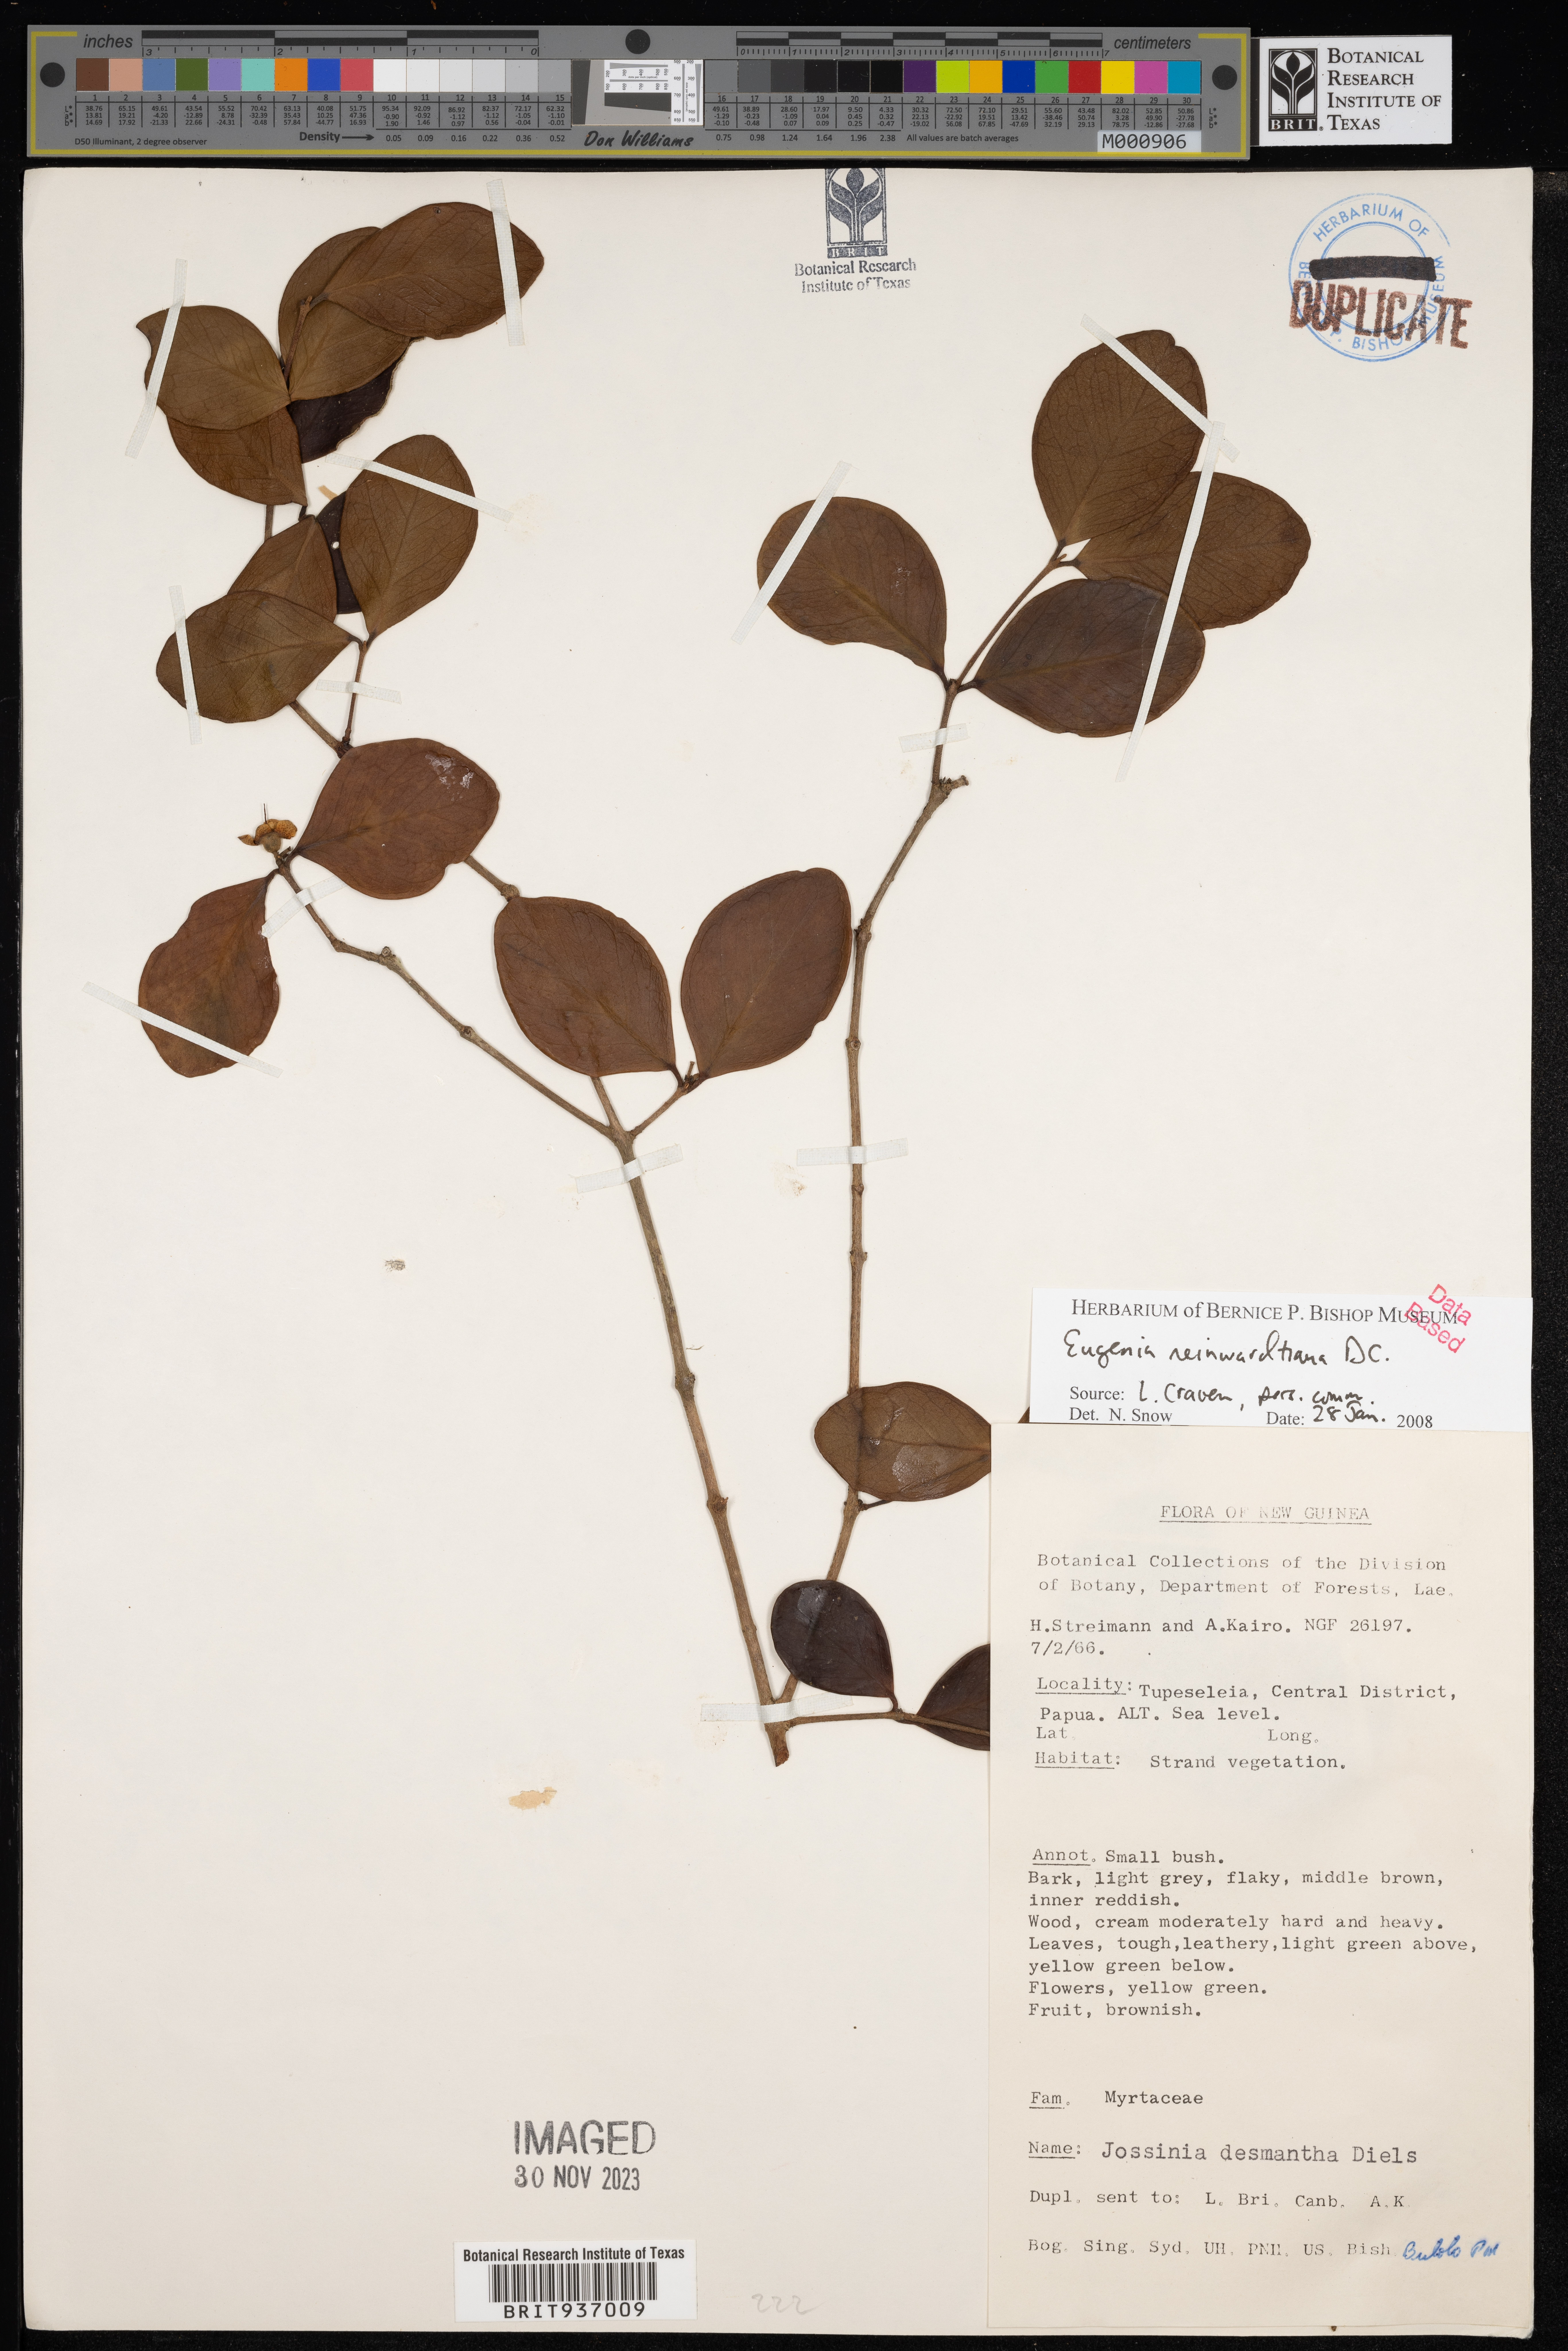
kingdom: Plantae
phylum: Tracheophyta
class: Magnoliopsida
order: Myrtales
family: Myrtaceae
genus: Eugenia
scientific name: Eugenia
